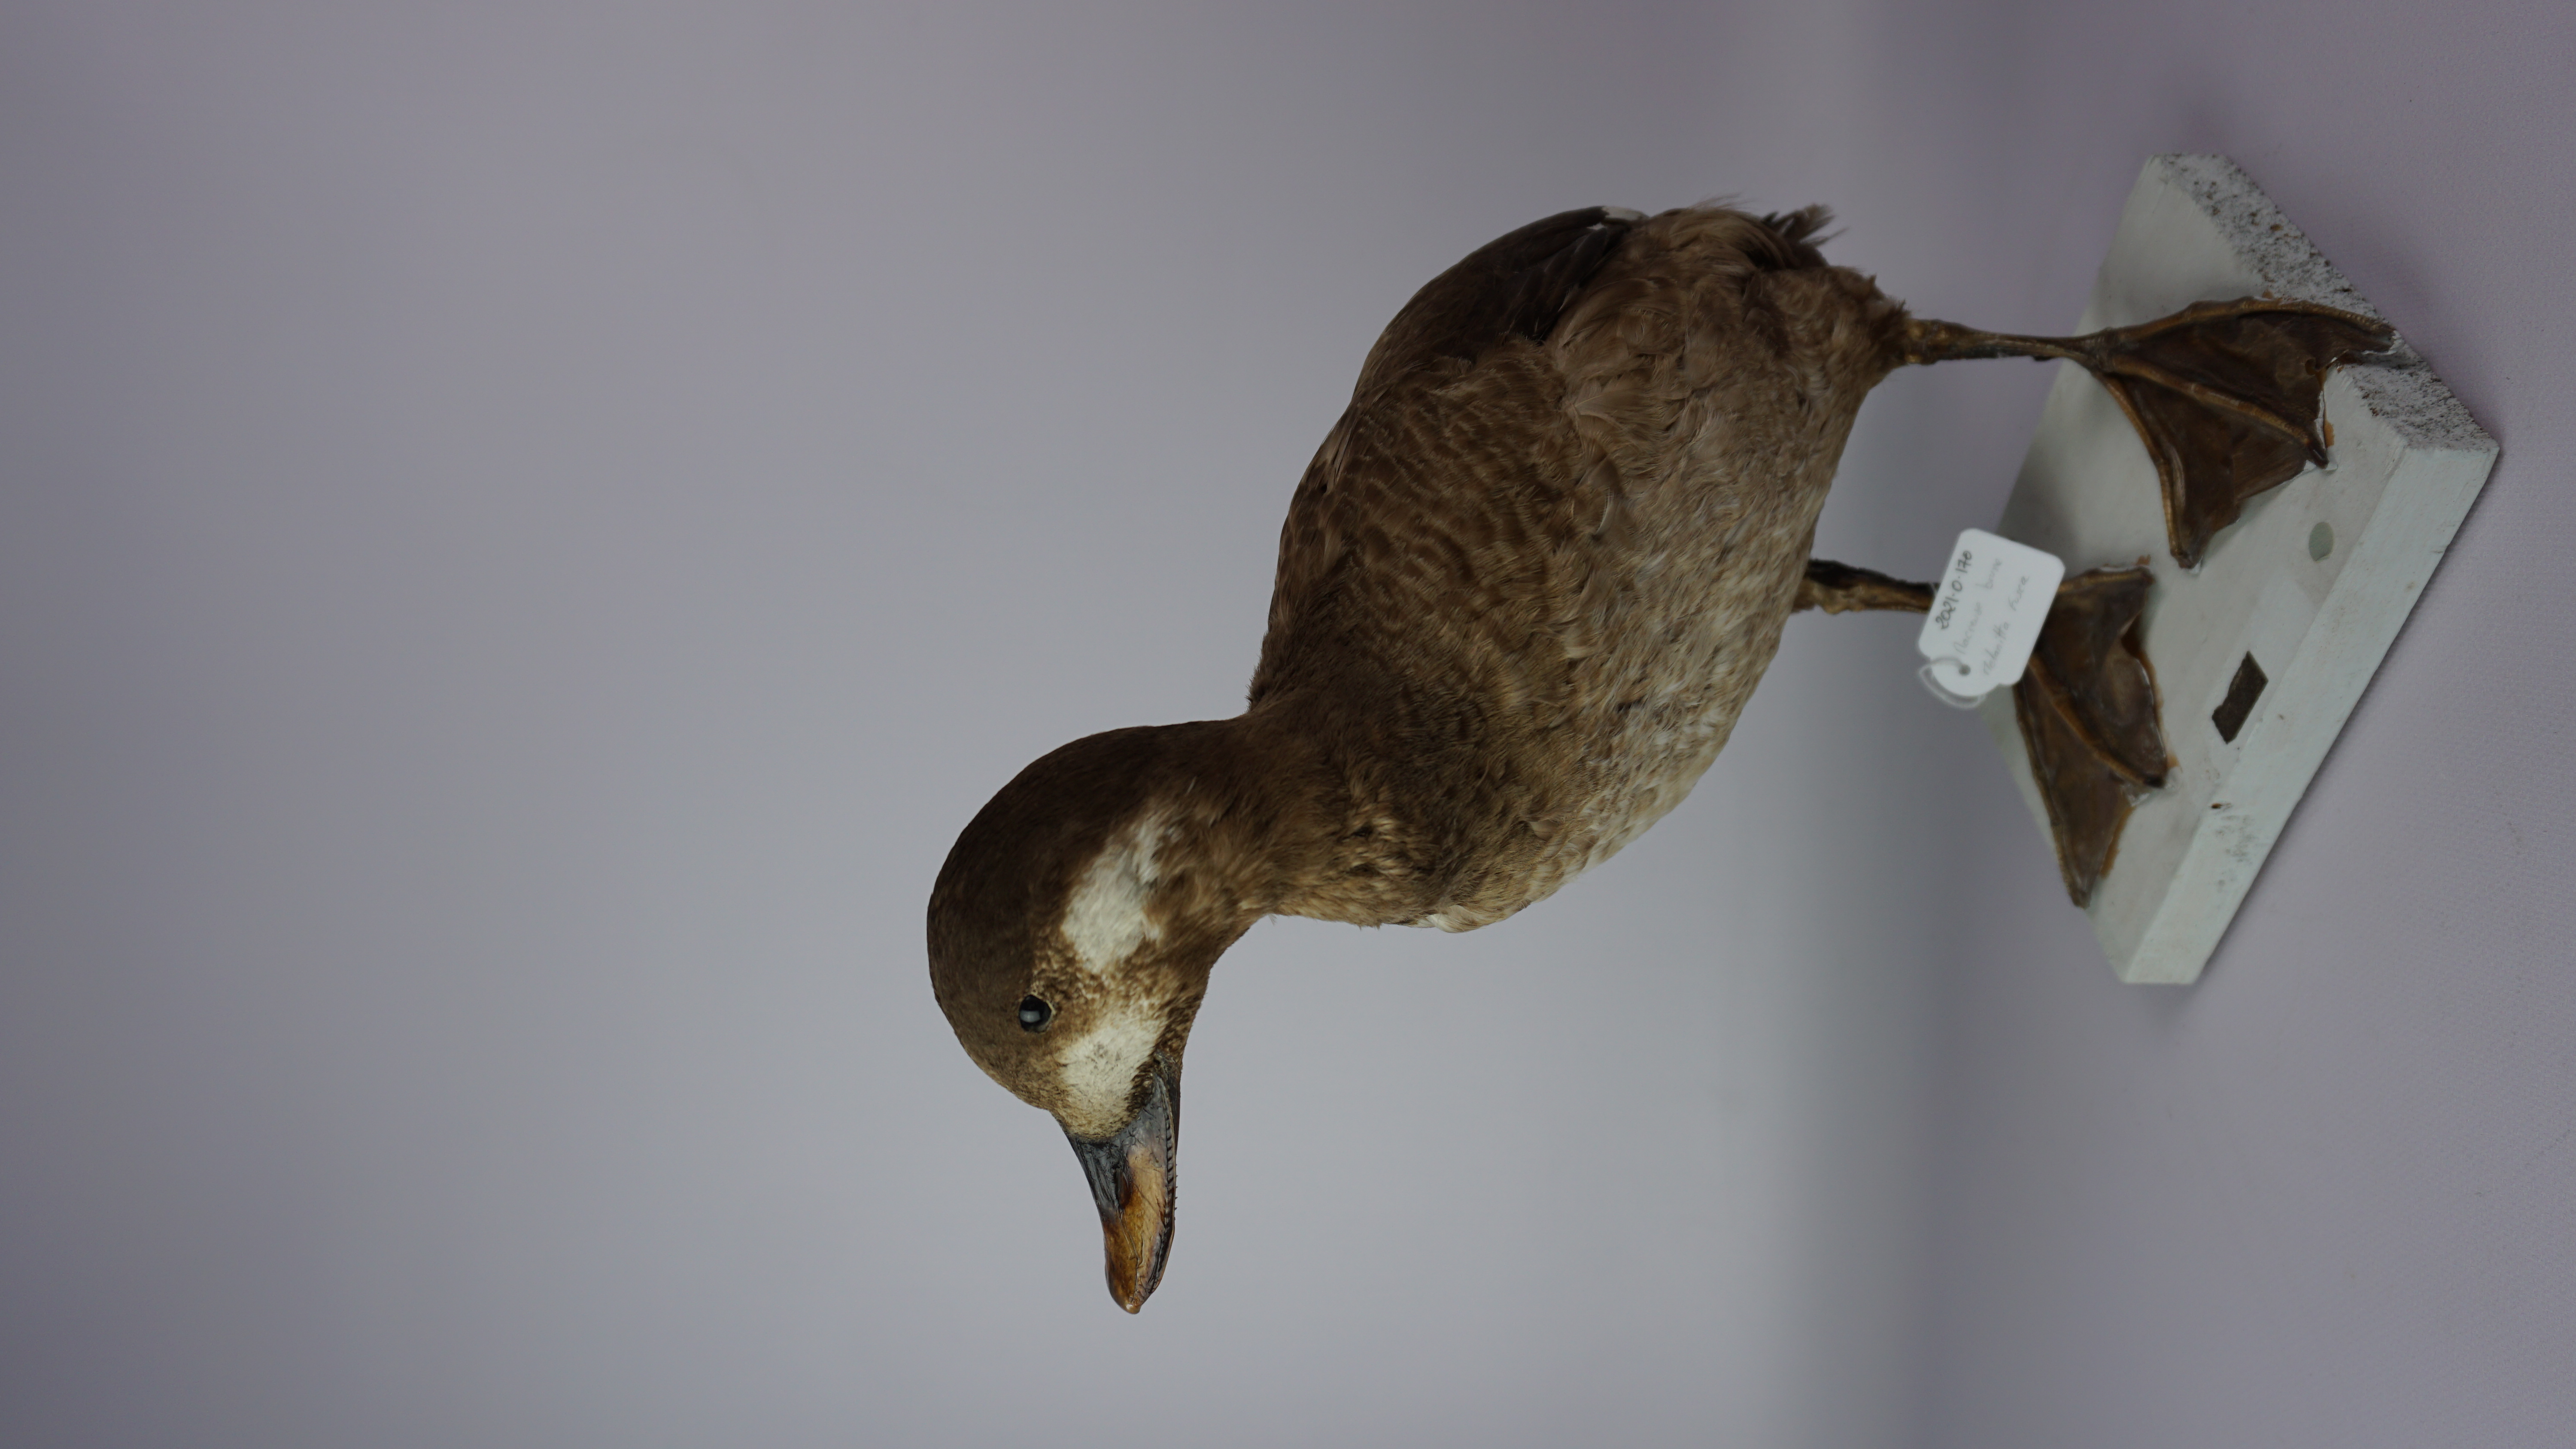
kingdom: Animalia
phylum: Chordata
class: Aves
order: Anseriformes
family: Anatidae
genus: Melanitta
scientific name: Melanitta fusca
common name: Velvet scoter
